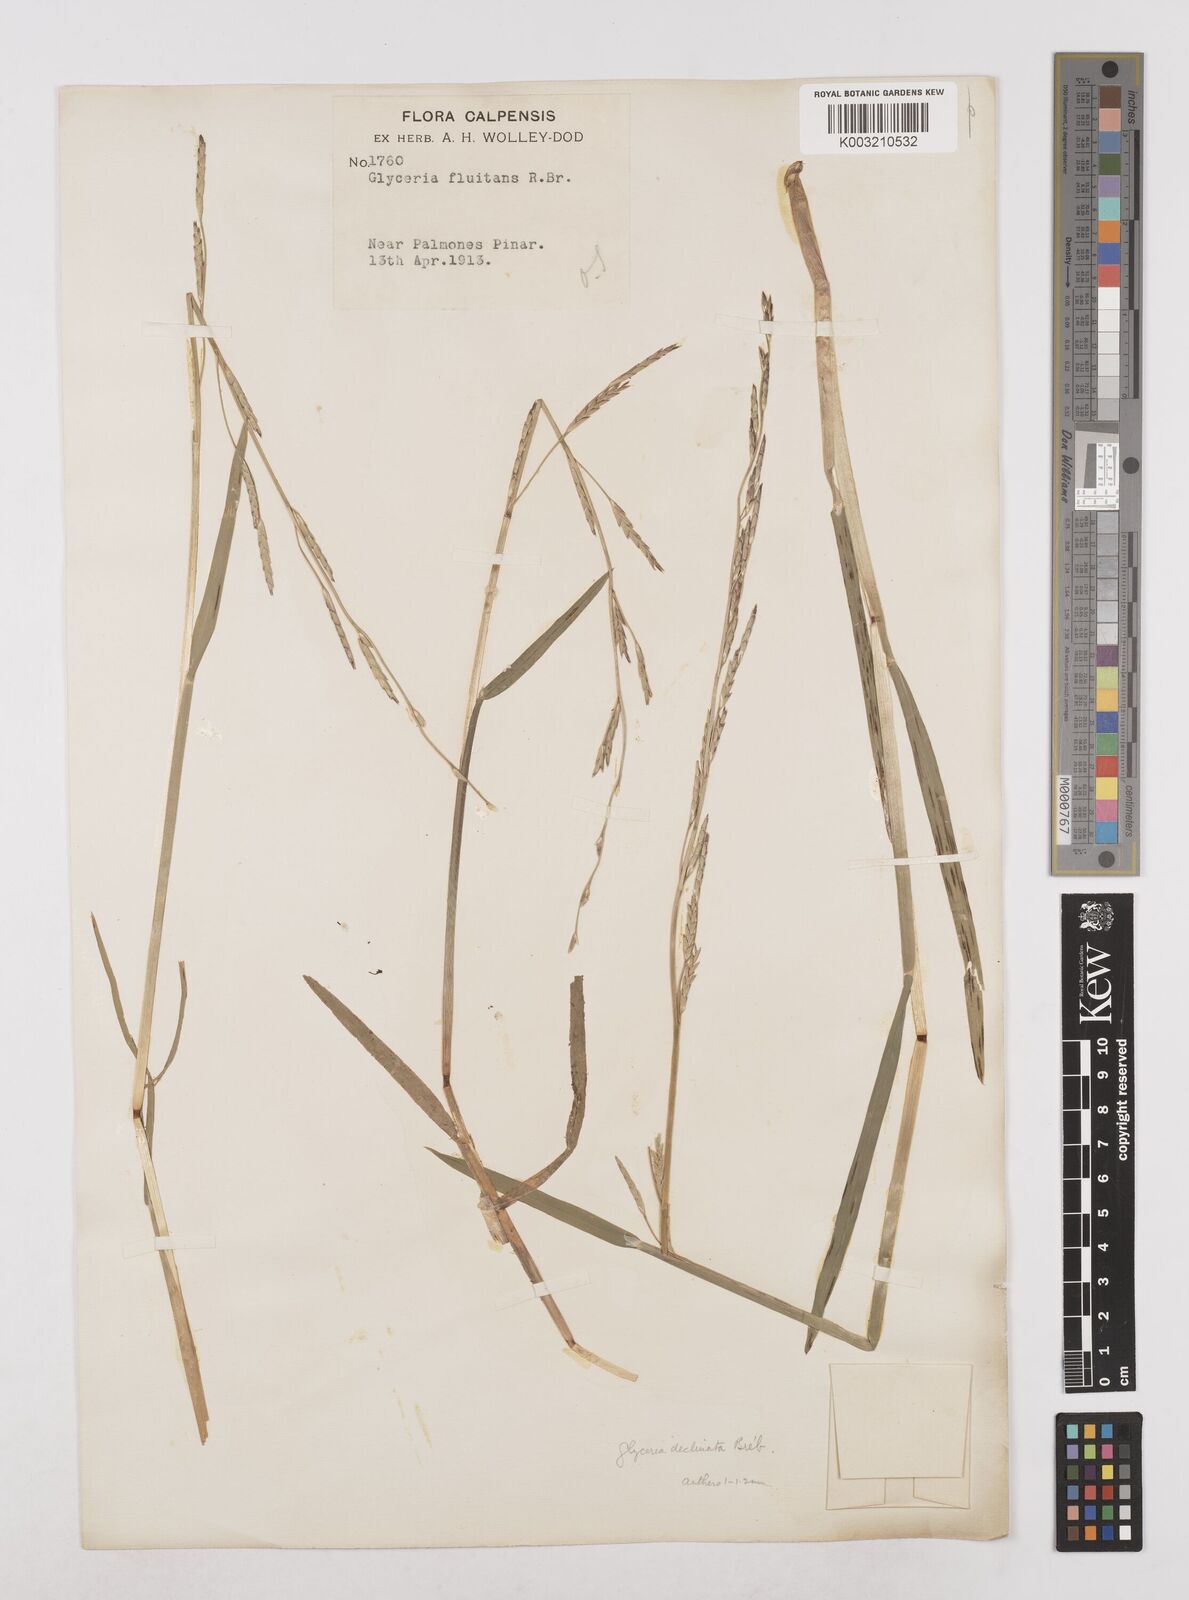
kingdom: Plantae
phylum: Tracheophyta
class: Liliopsida
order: Poales
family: Poaceae
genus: Glyceria
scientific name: Glyceria declinata
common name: Small sweet-grass
